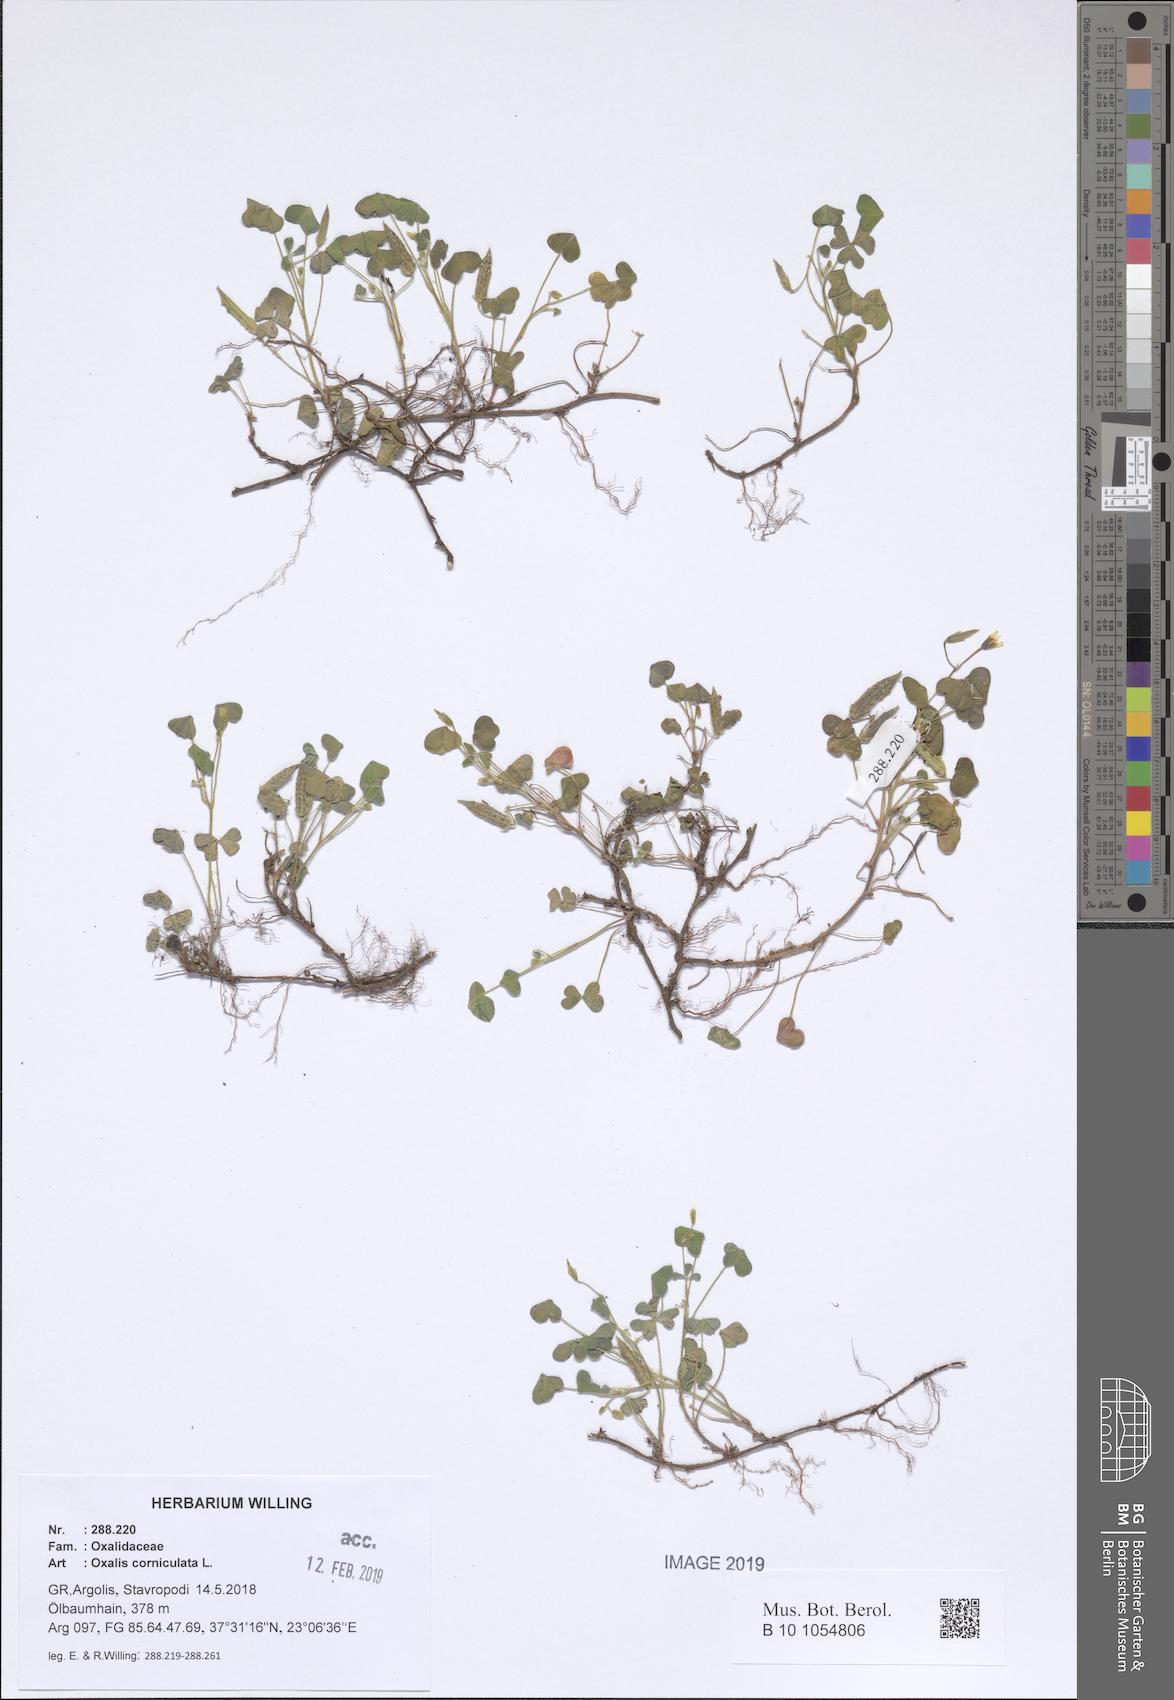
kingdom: Plantae
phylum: Tracheophyta
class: Magnoliopsida
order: Oxalidales
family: Oxalidaceae
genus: Oxalis
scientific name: Oxalis corniculata
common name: Procumbent yellow-sorrel
